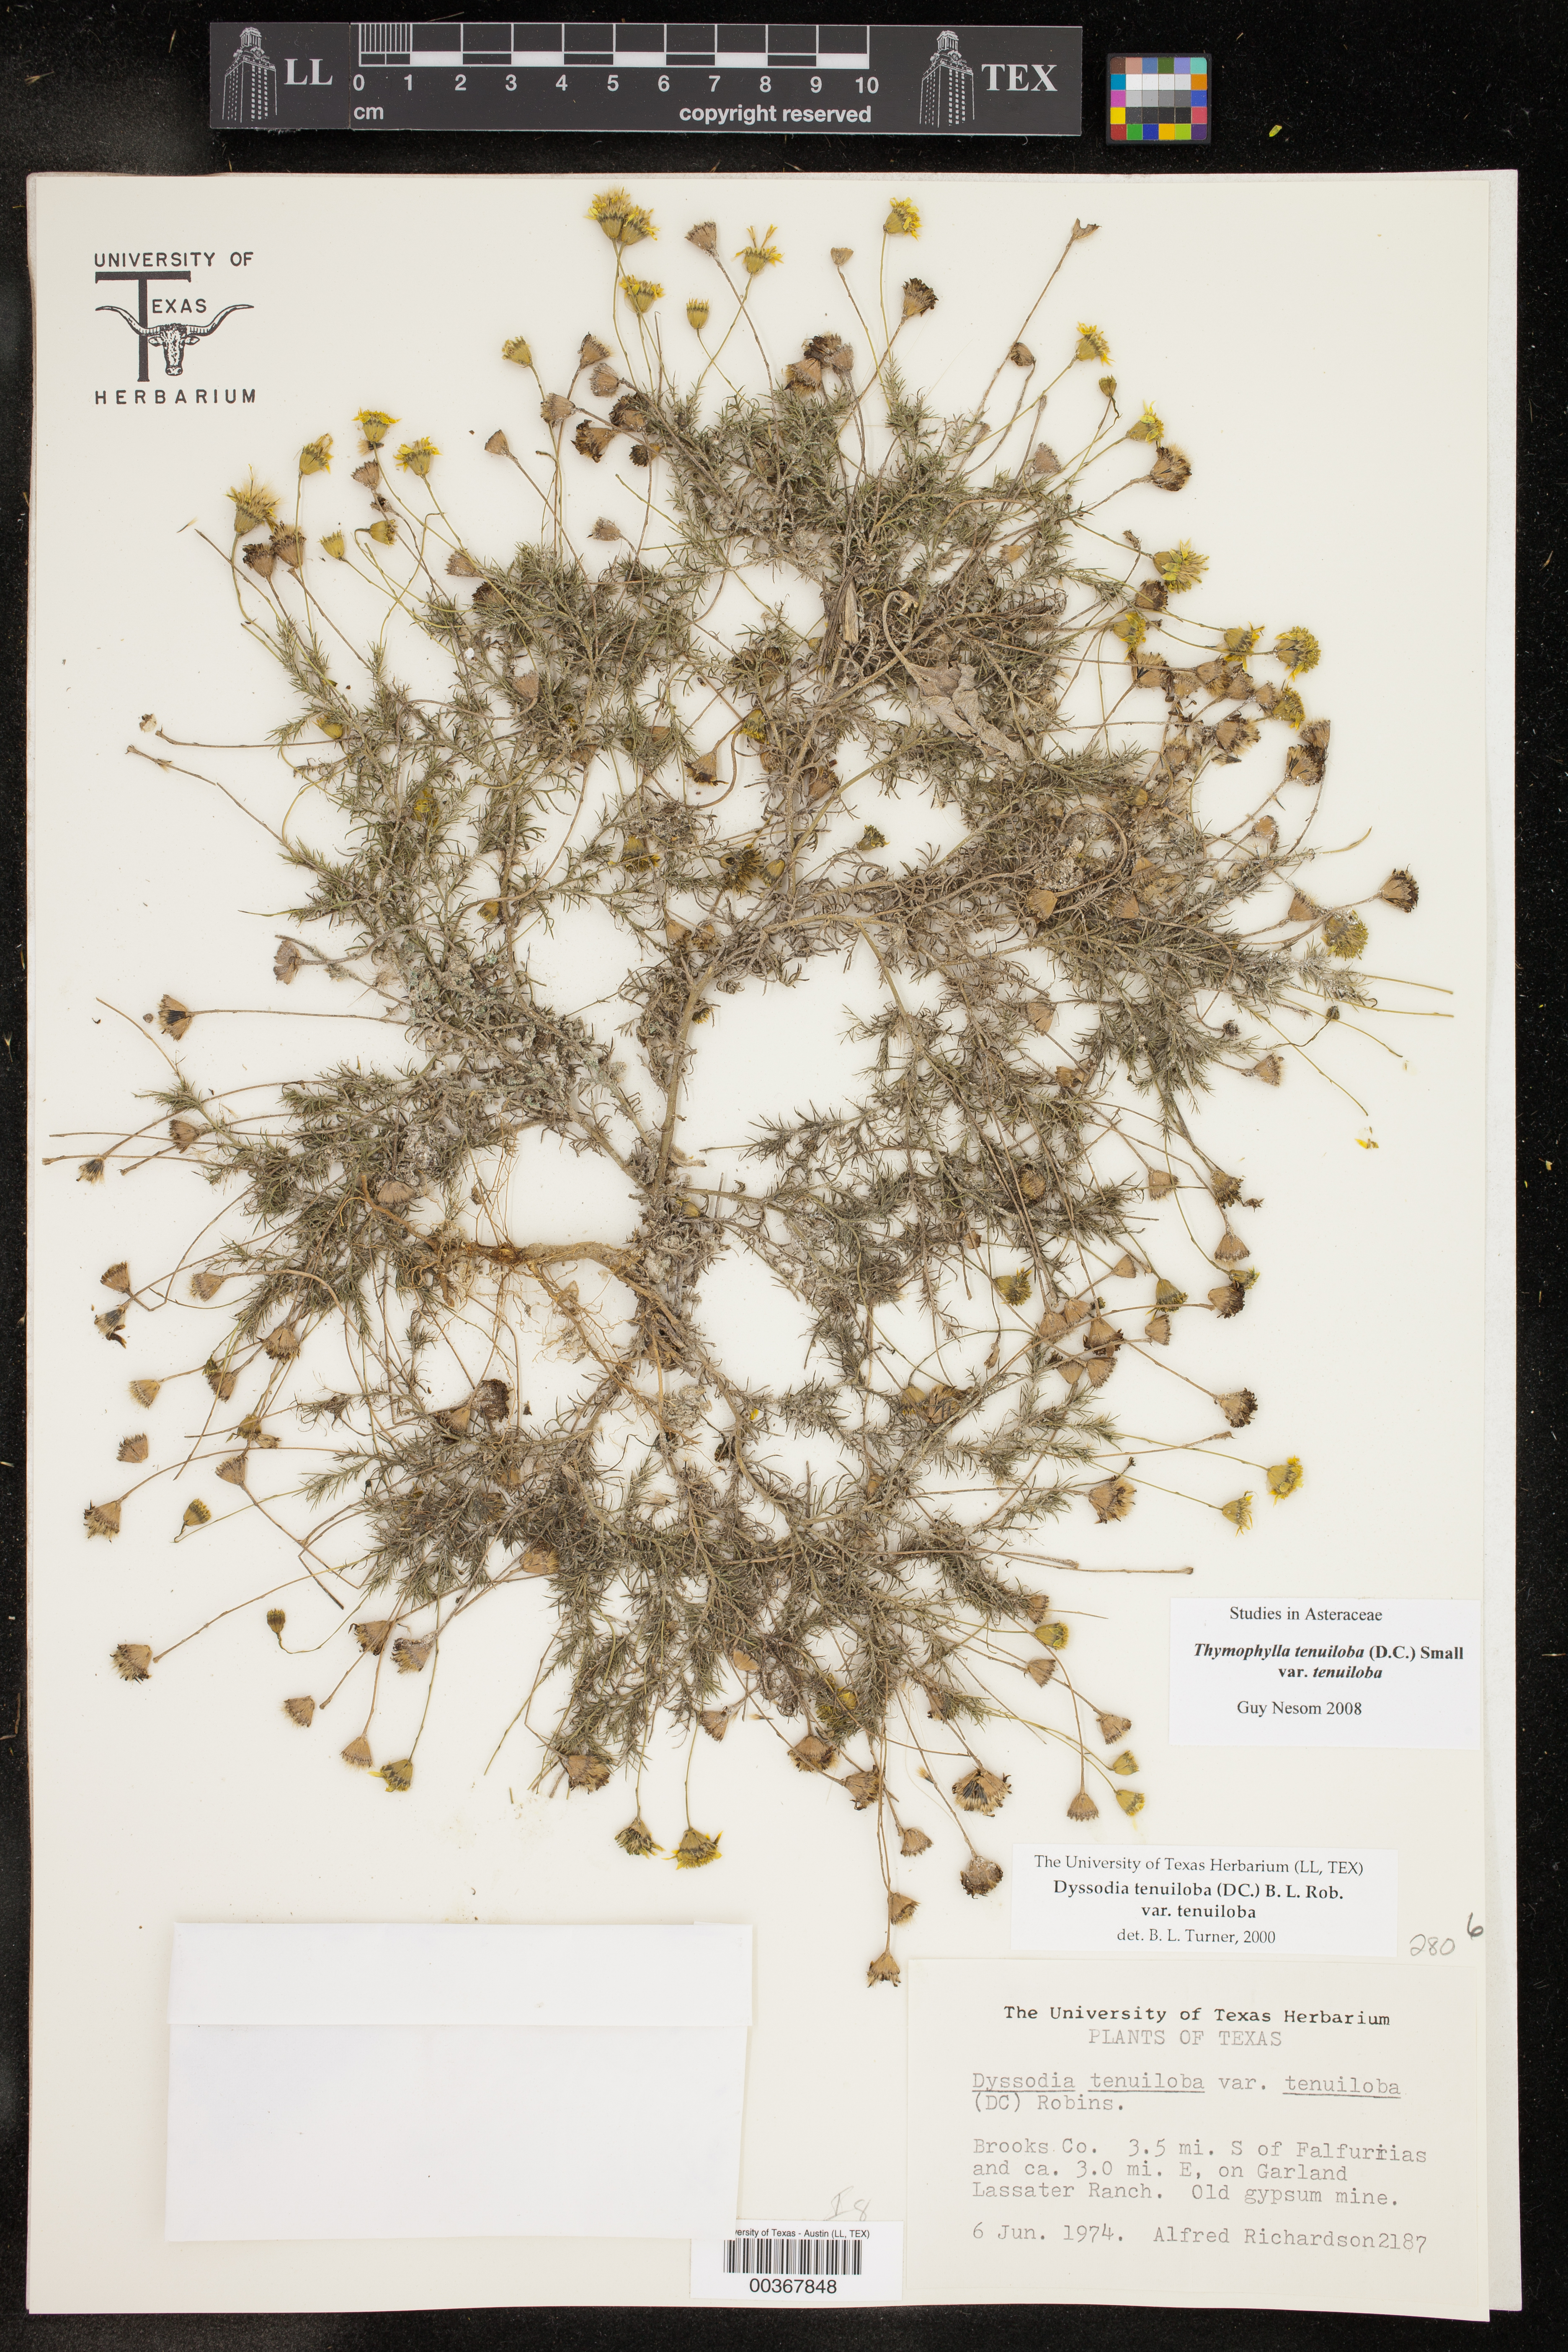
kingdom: Plantae
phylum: Tracheophyta
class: Magnoliopsida
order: Asterales
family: Asteraceae
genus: Thymophylla
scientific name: Thymophylla tenuiloba
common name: Dahlberg's daisy
